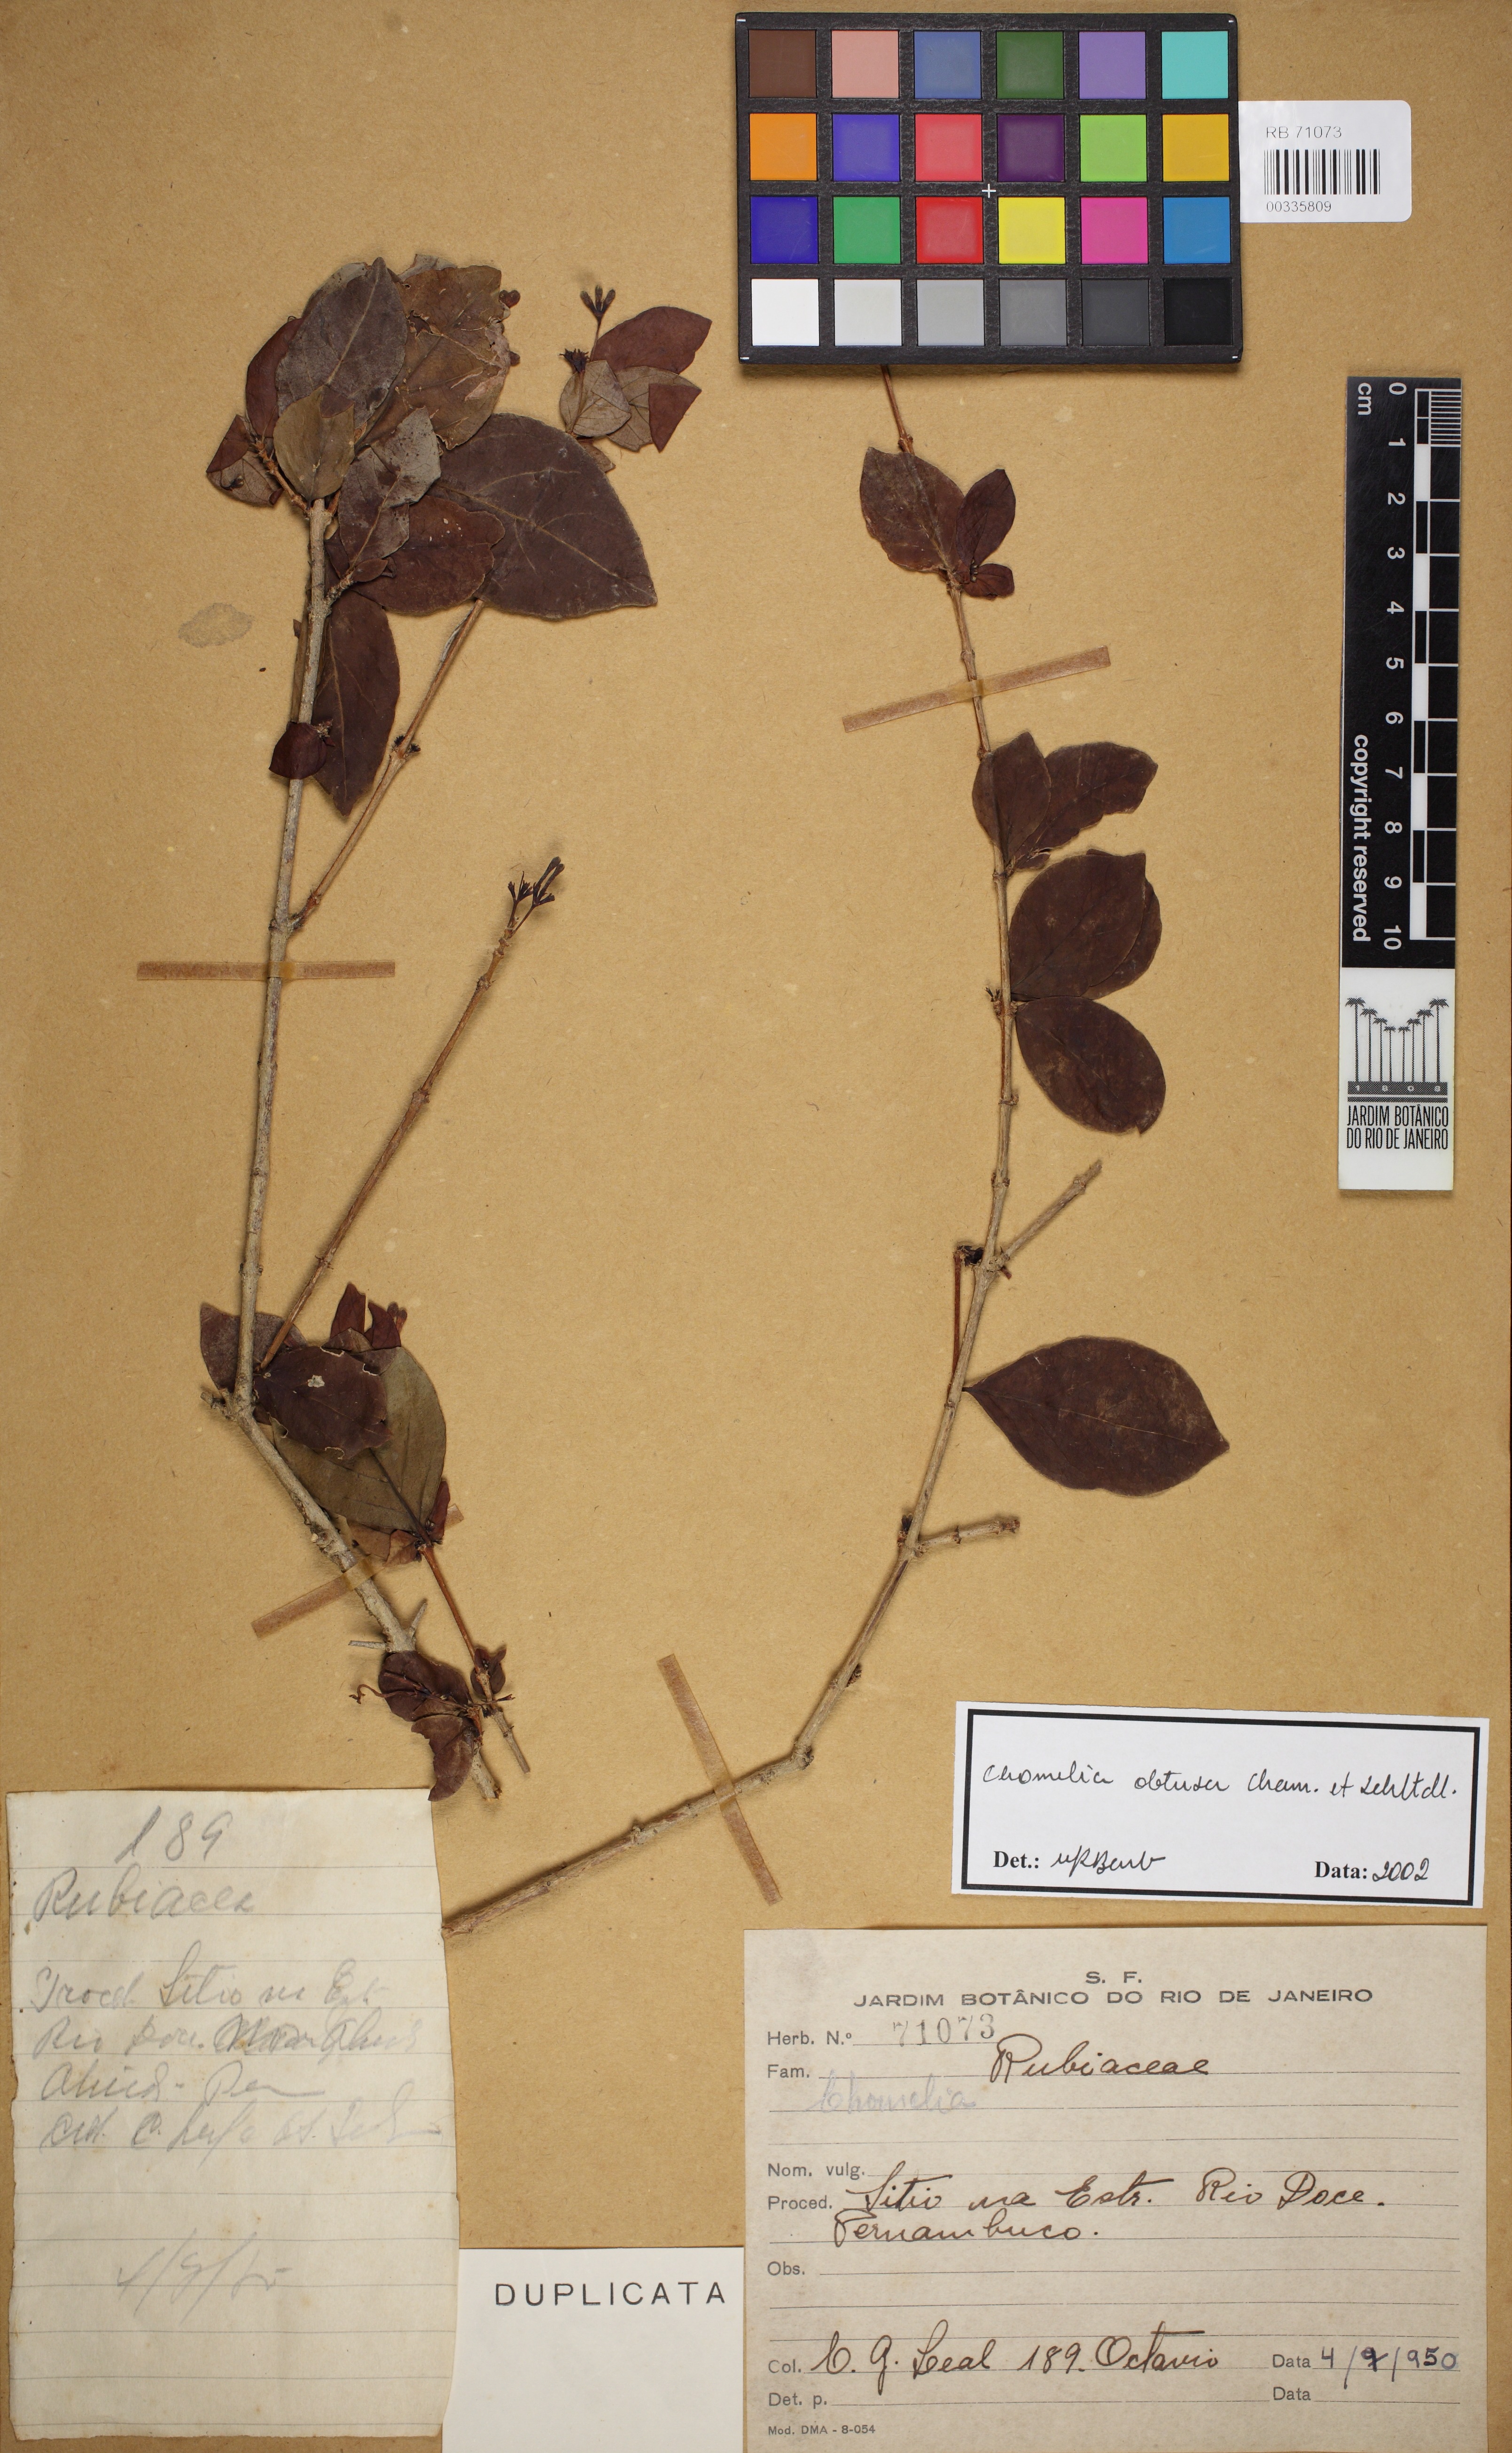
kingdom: Plantae
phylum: Tracheophyta
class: Magnoliopsida
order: Gentianales
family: Rubiaceae
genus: Chomelia
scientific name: Chomelia obtusa
